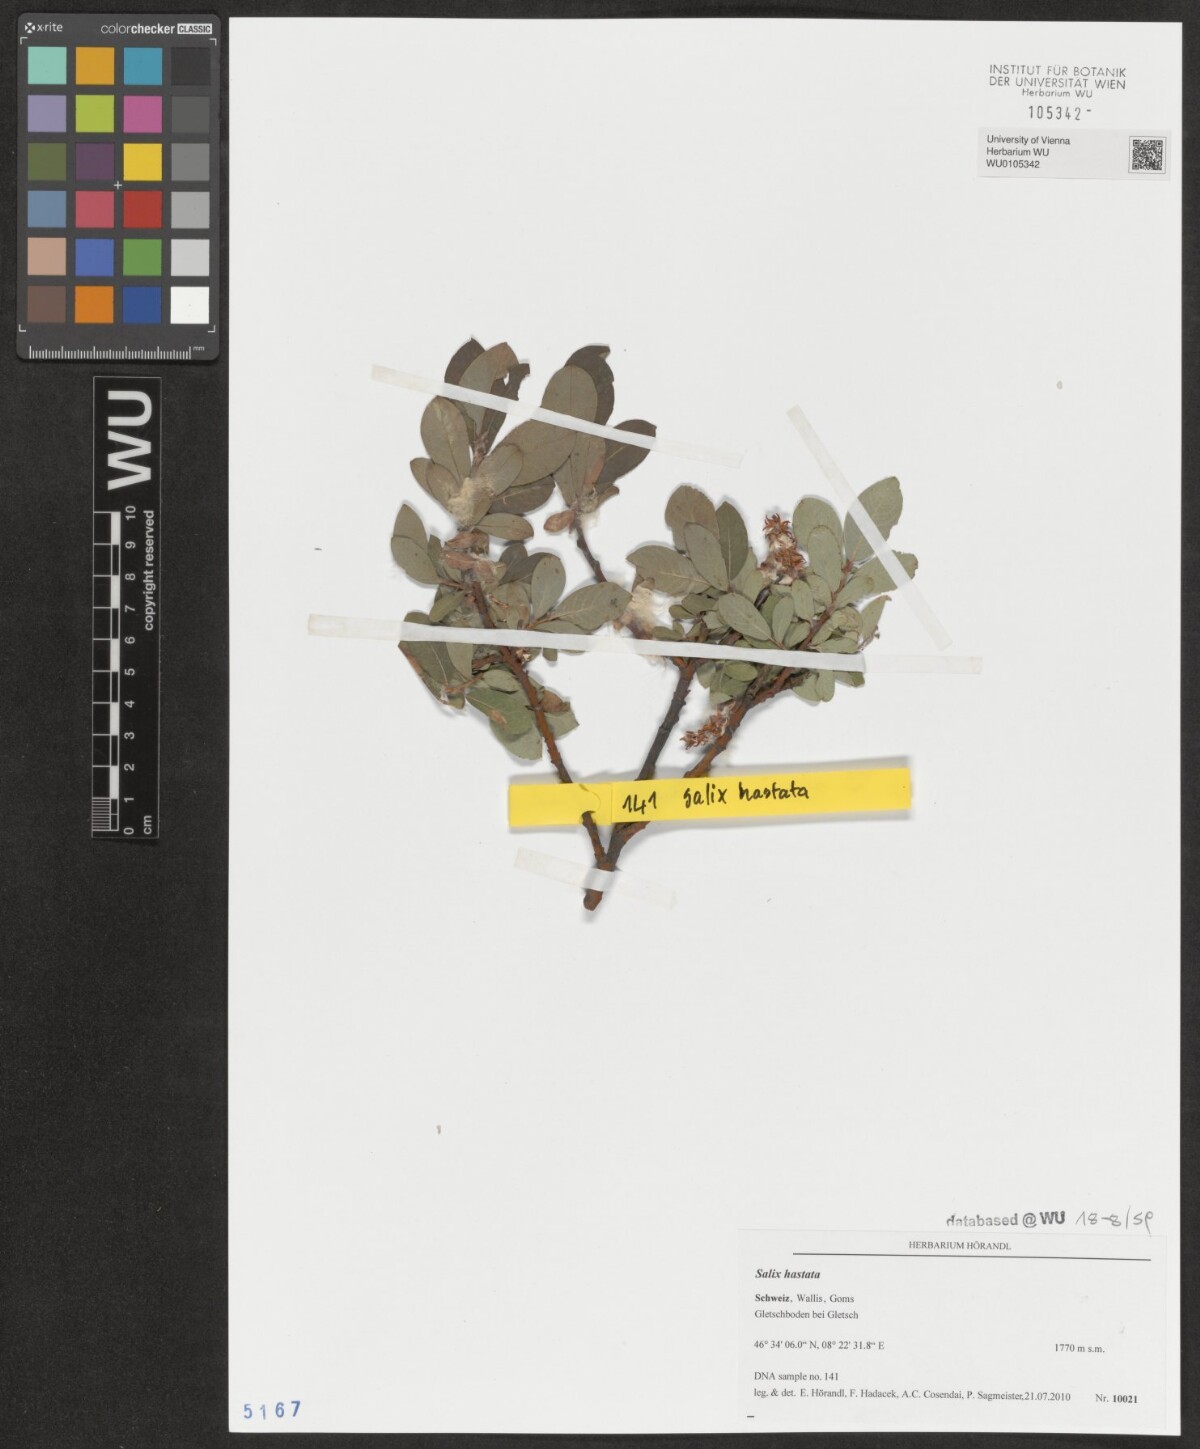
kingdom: Plantae
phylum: Tracheophyta
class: Magnoliopsida
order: Malpighiales
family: Salicaceae
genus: Salix
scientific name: Salix hastata
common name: Halberd willow
